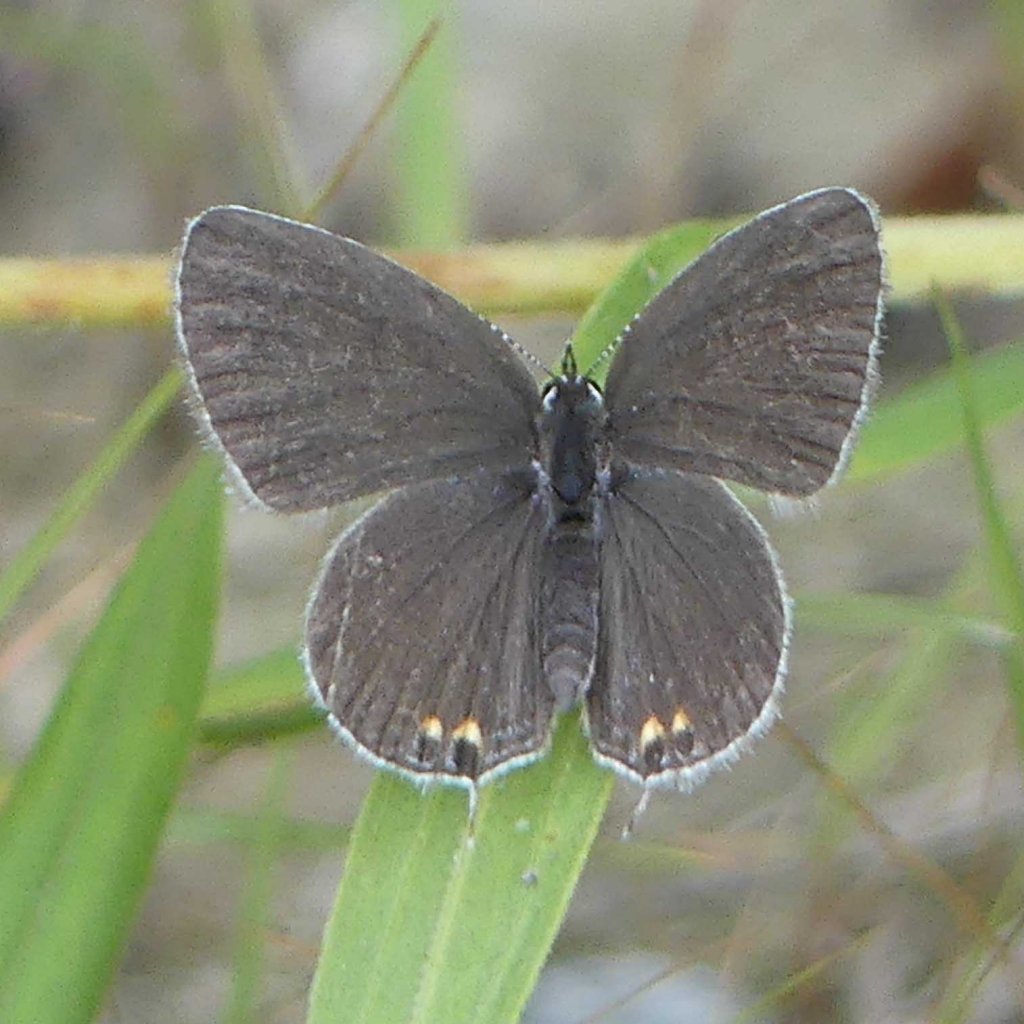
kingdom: Animalia
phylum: Arthropoda
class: Insecta
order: Lepidoptera
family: Lycaenidae
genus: Elkalyce
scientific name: Elkalyce comyntas
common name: Eastern Tailed-Blue
